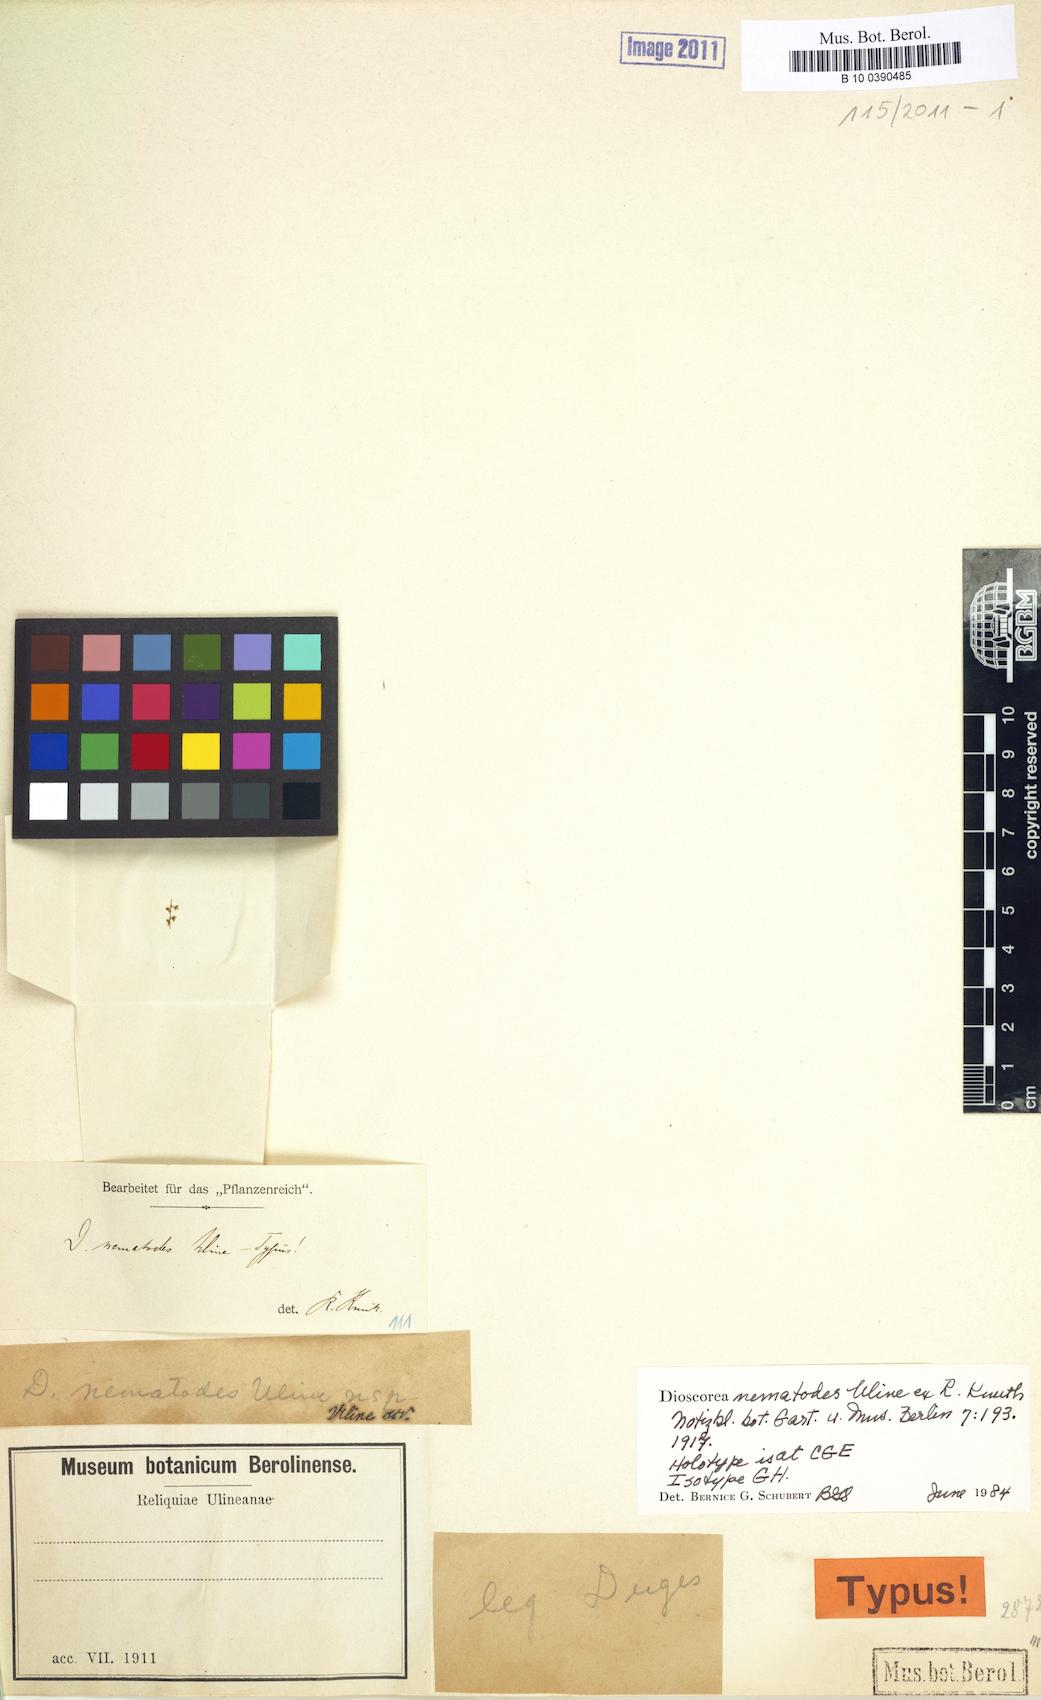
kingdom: Plantae
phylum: Tracheophyta
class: Liliopsida
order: Dioscoreales
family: Dioscoreaceae
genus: Dioscorea
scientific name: Dioscorea nematodes
